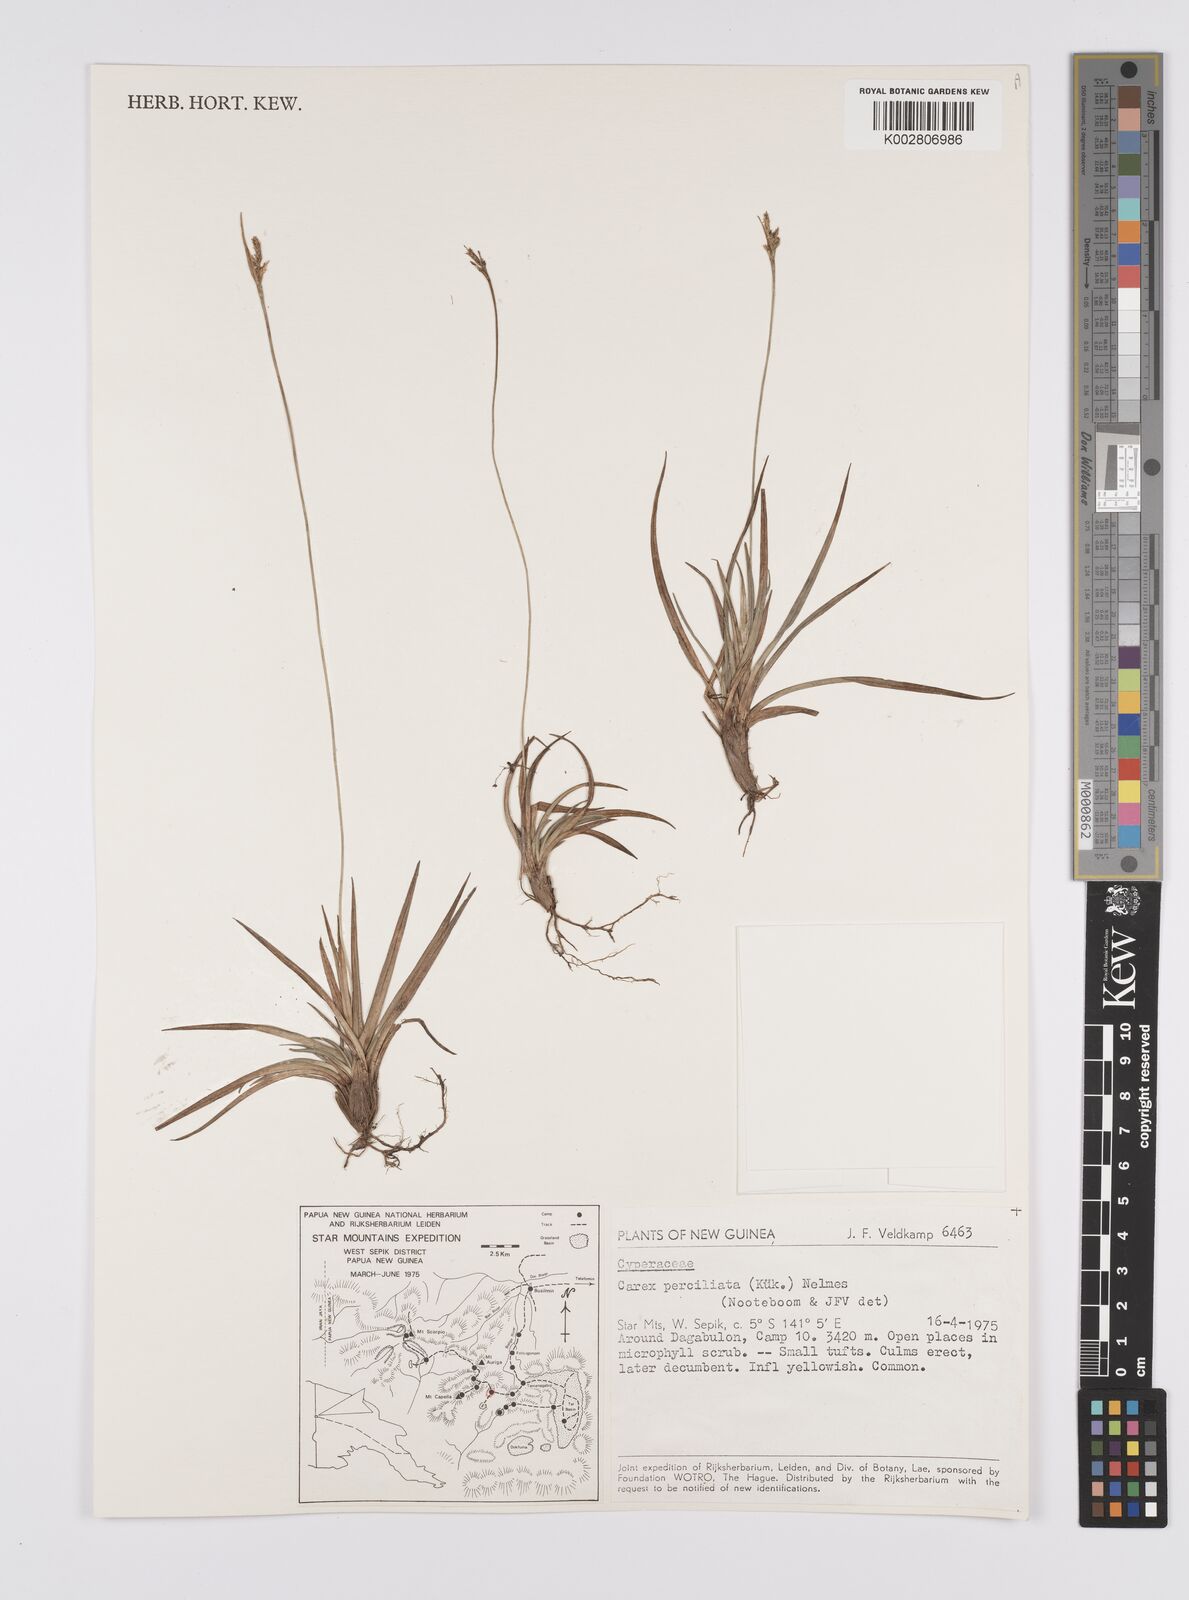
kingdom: Plantae
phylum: Tracheophyta
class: Liliopsida
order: Poales
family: Cyperaceae
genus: Carex
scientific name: Carex breviculmis
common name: Asian shortstem sedge
